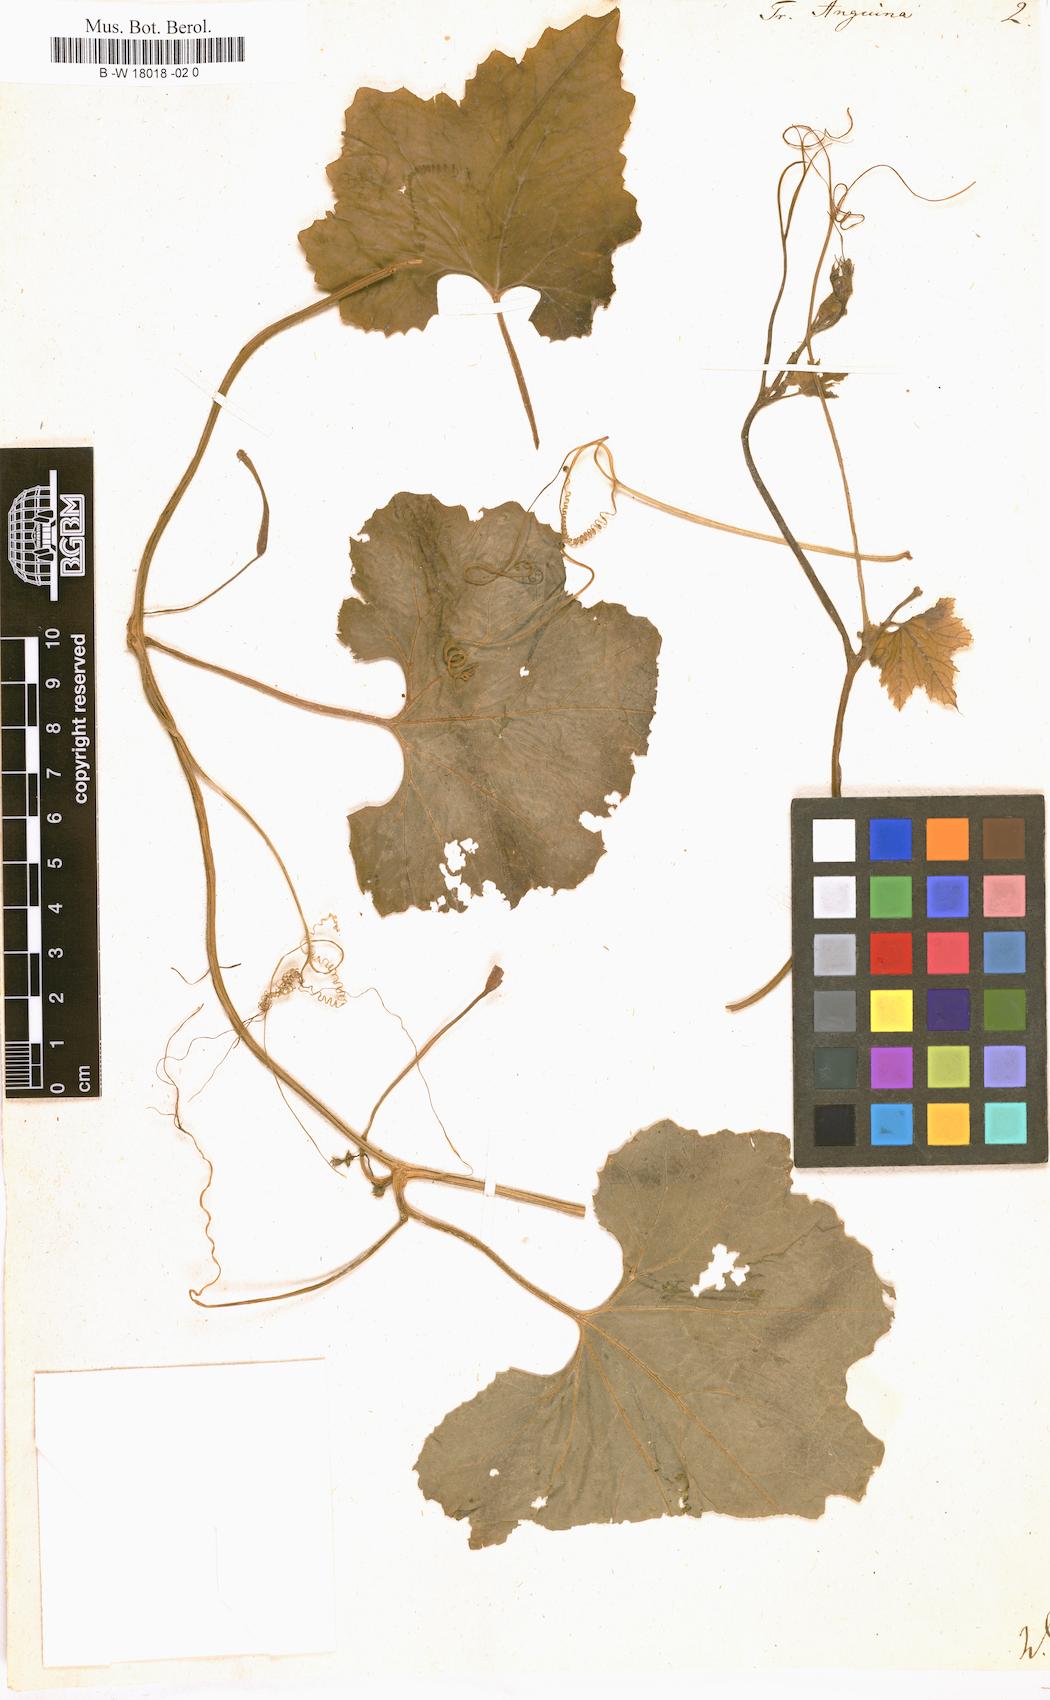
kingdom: Plantae
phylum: Tracheophyta
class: Magnoliopsida
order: Cucurbitales
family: Cucurbitaceae
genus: Kedrostis
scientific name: Kedrostis foetidissima
